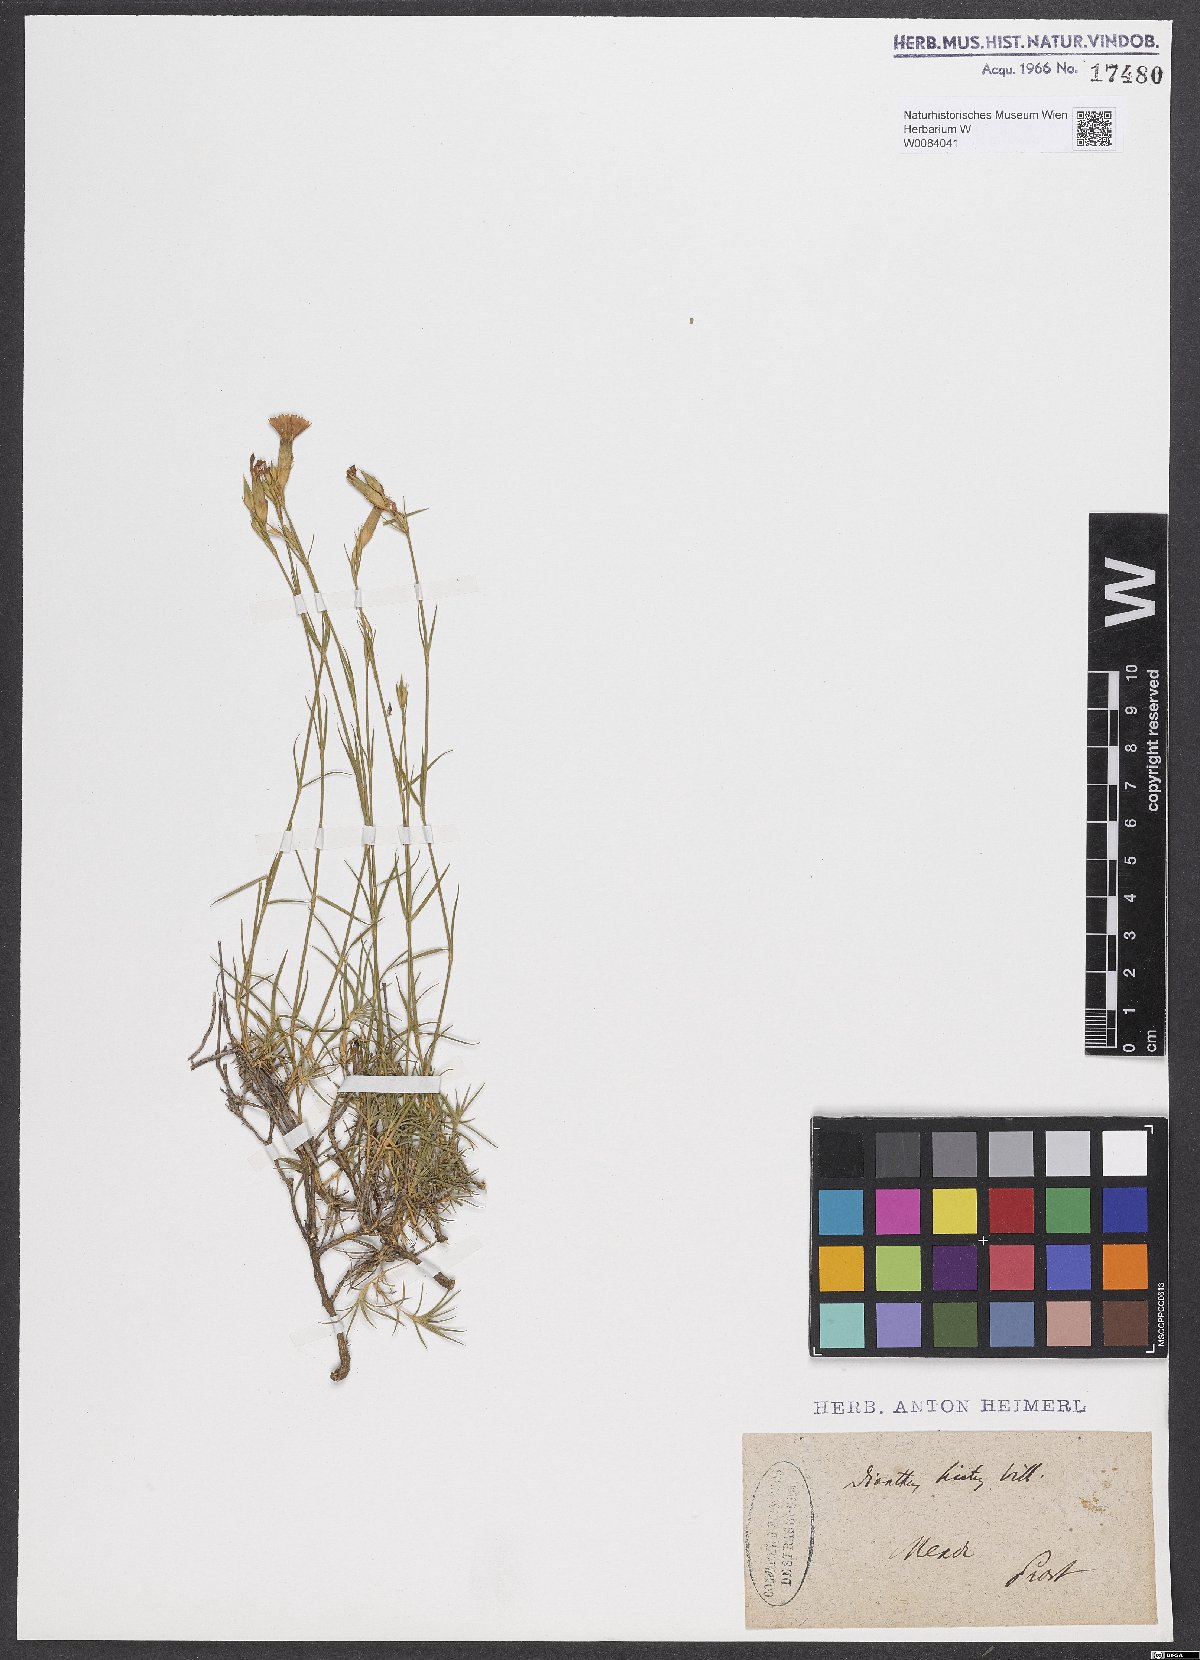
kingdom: Plantae
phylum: Tracheophyta
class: Magnoliopsida
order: Caryophyllales
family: Caryophyllaceae
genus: Dianthus
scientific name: Dianthus scaber
